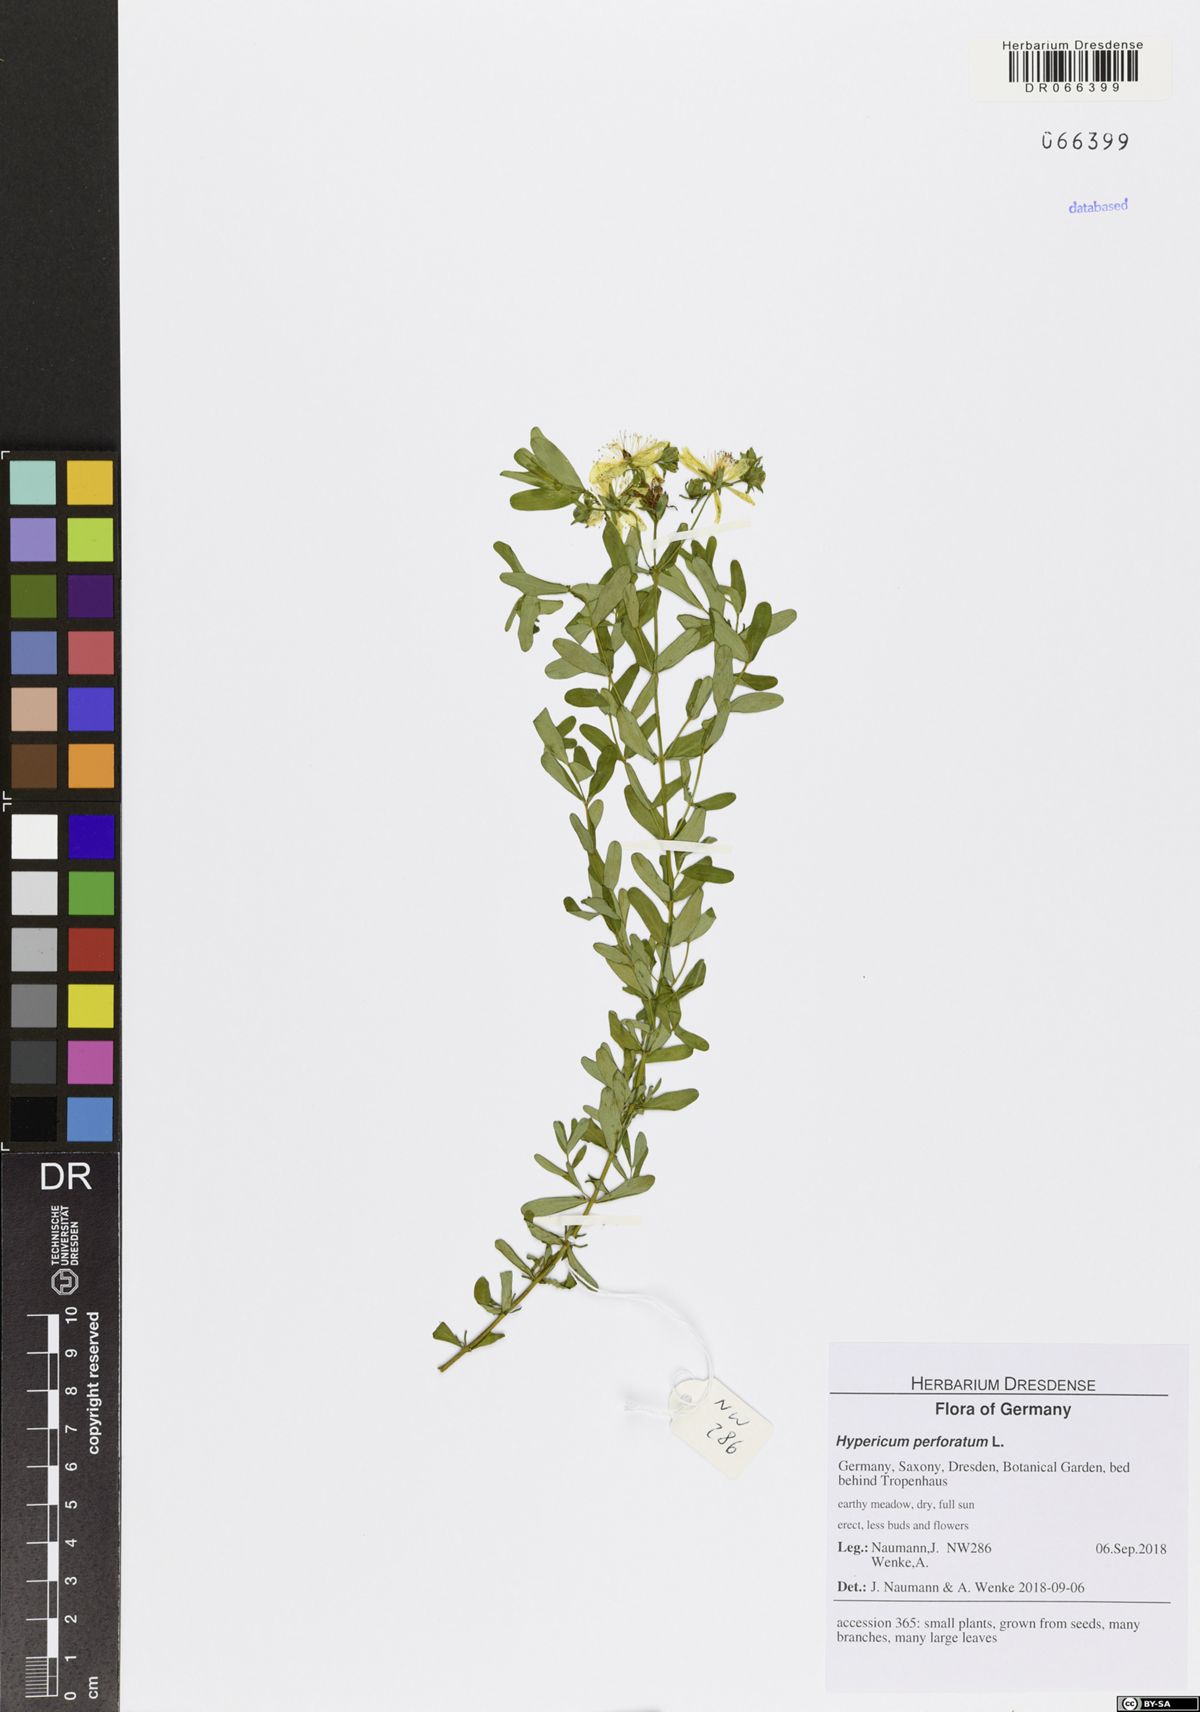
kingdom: Plantae
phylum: Tracheophyta
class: Magnoliopsida
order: Malpighiales
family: Hypericaceae
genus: Hypericum
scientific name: Hypericum perforatum
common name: Common st. johnswort
